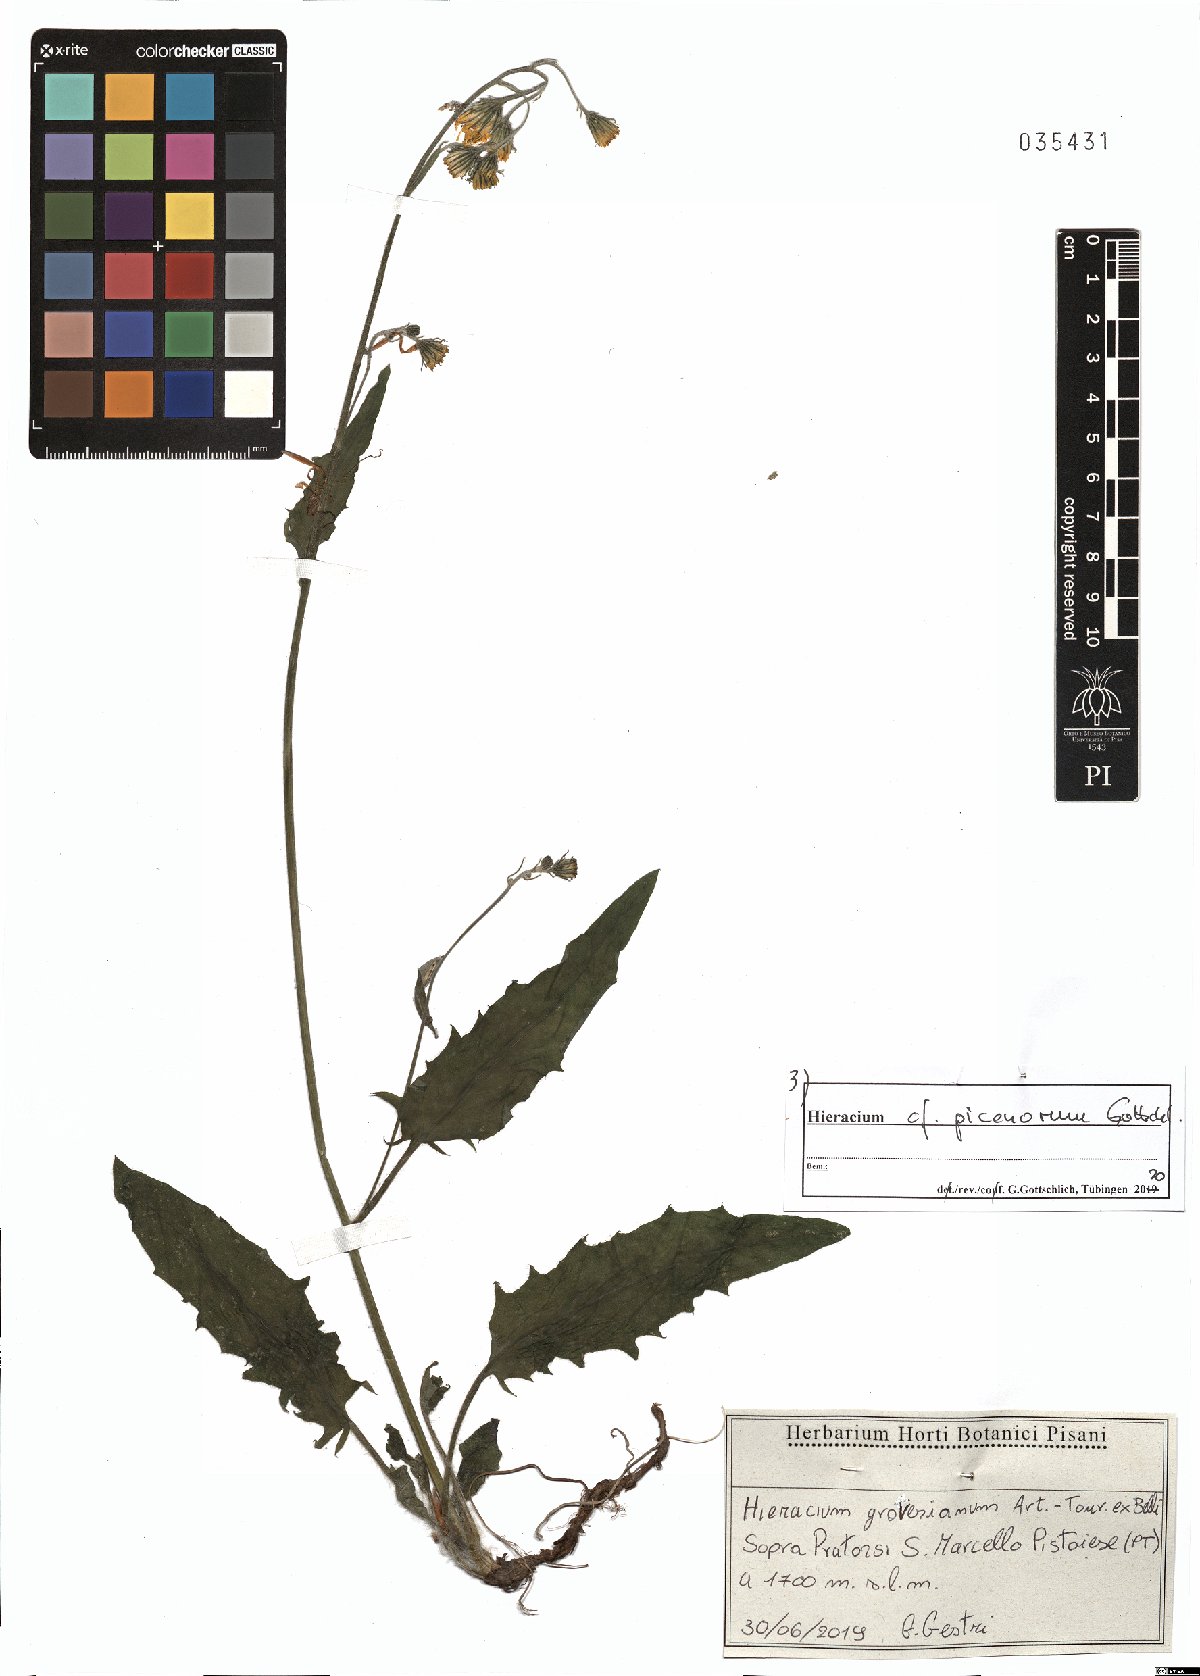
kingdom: Plantae
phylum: Tracheophyta
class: Magnoliopsida
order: Asterales
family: Asteraceae
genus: Hieracium
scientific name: Hieracium picenorum
